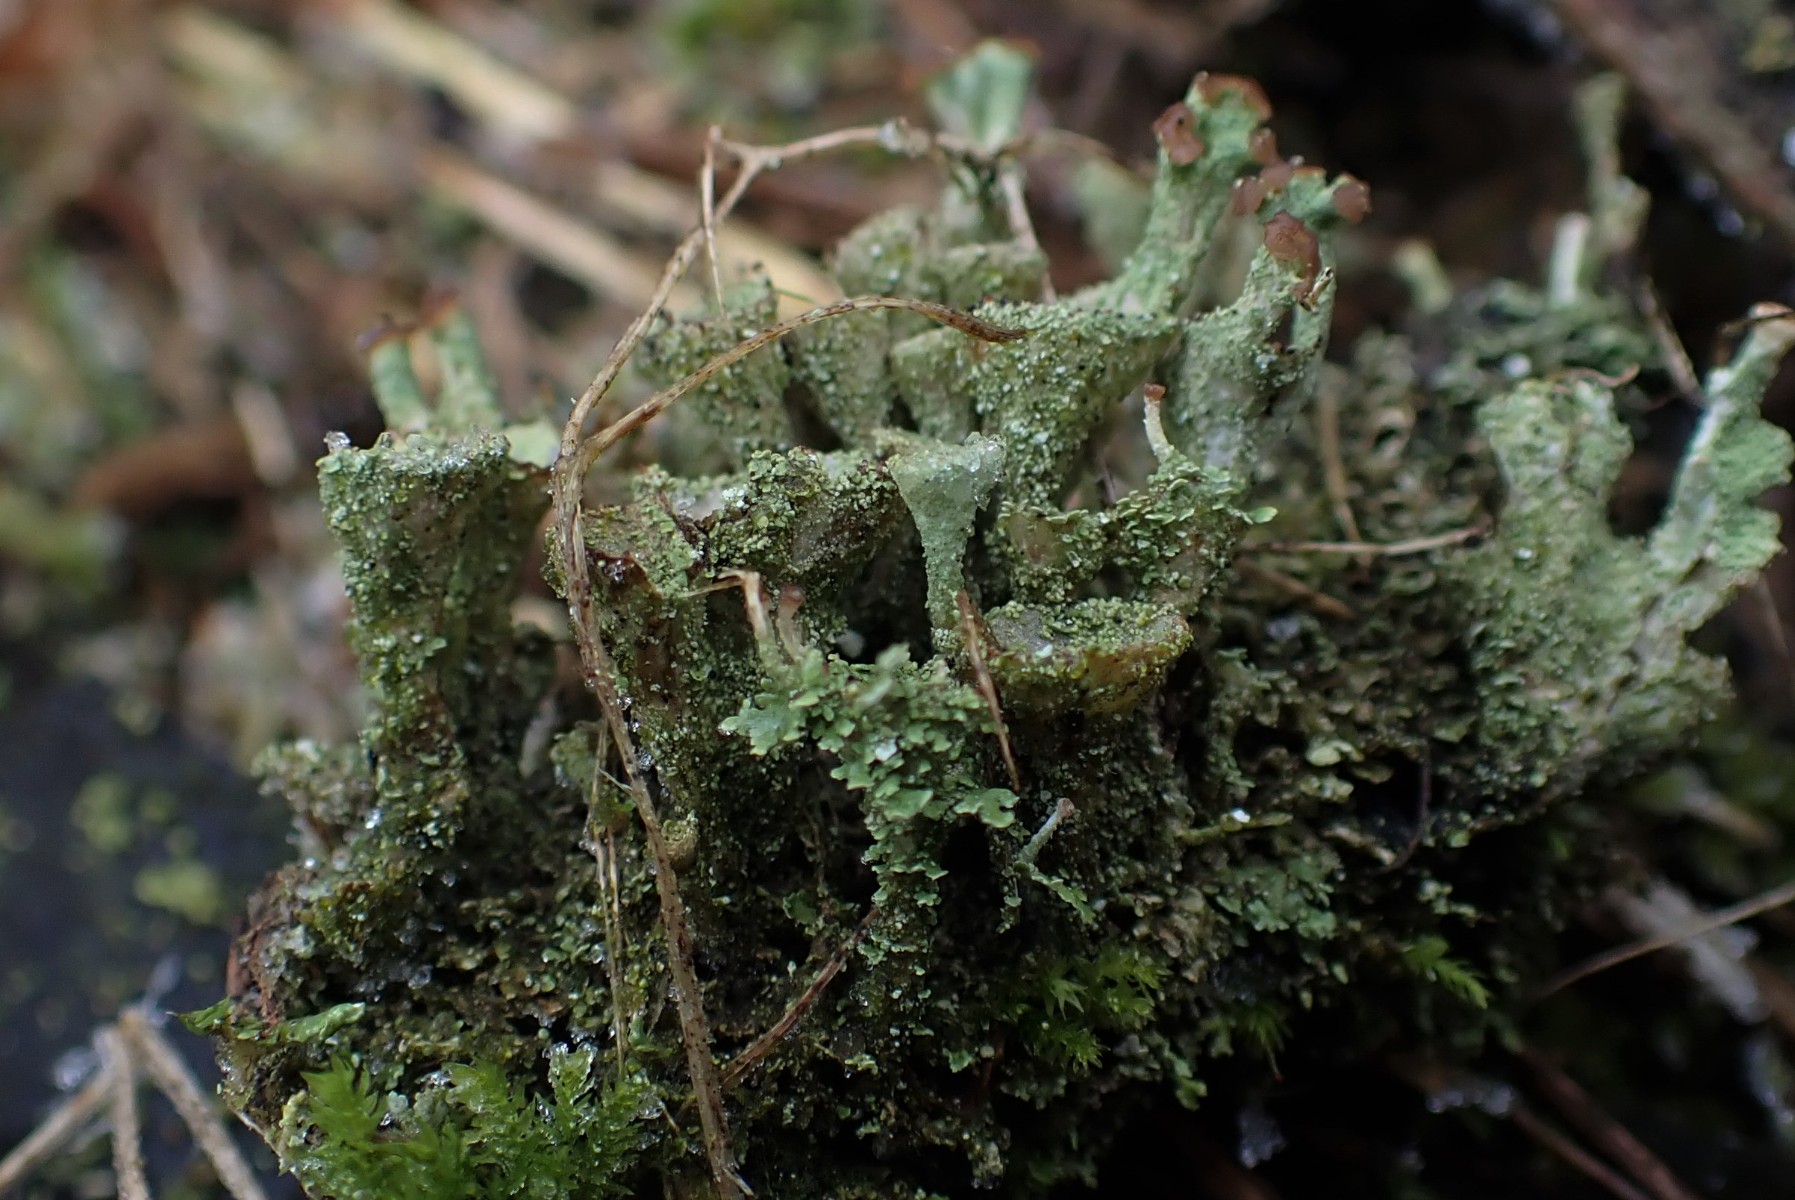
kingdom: Fungi
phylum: Ascomycota
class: Lecanoromycetes
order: Lecanorales
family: Cladoniaceae
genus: Cladonia
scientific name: Cladonia
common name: brungrøn bægerlav
